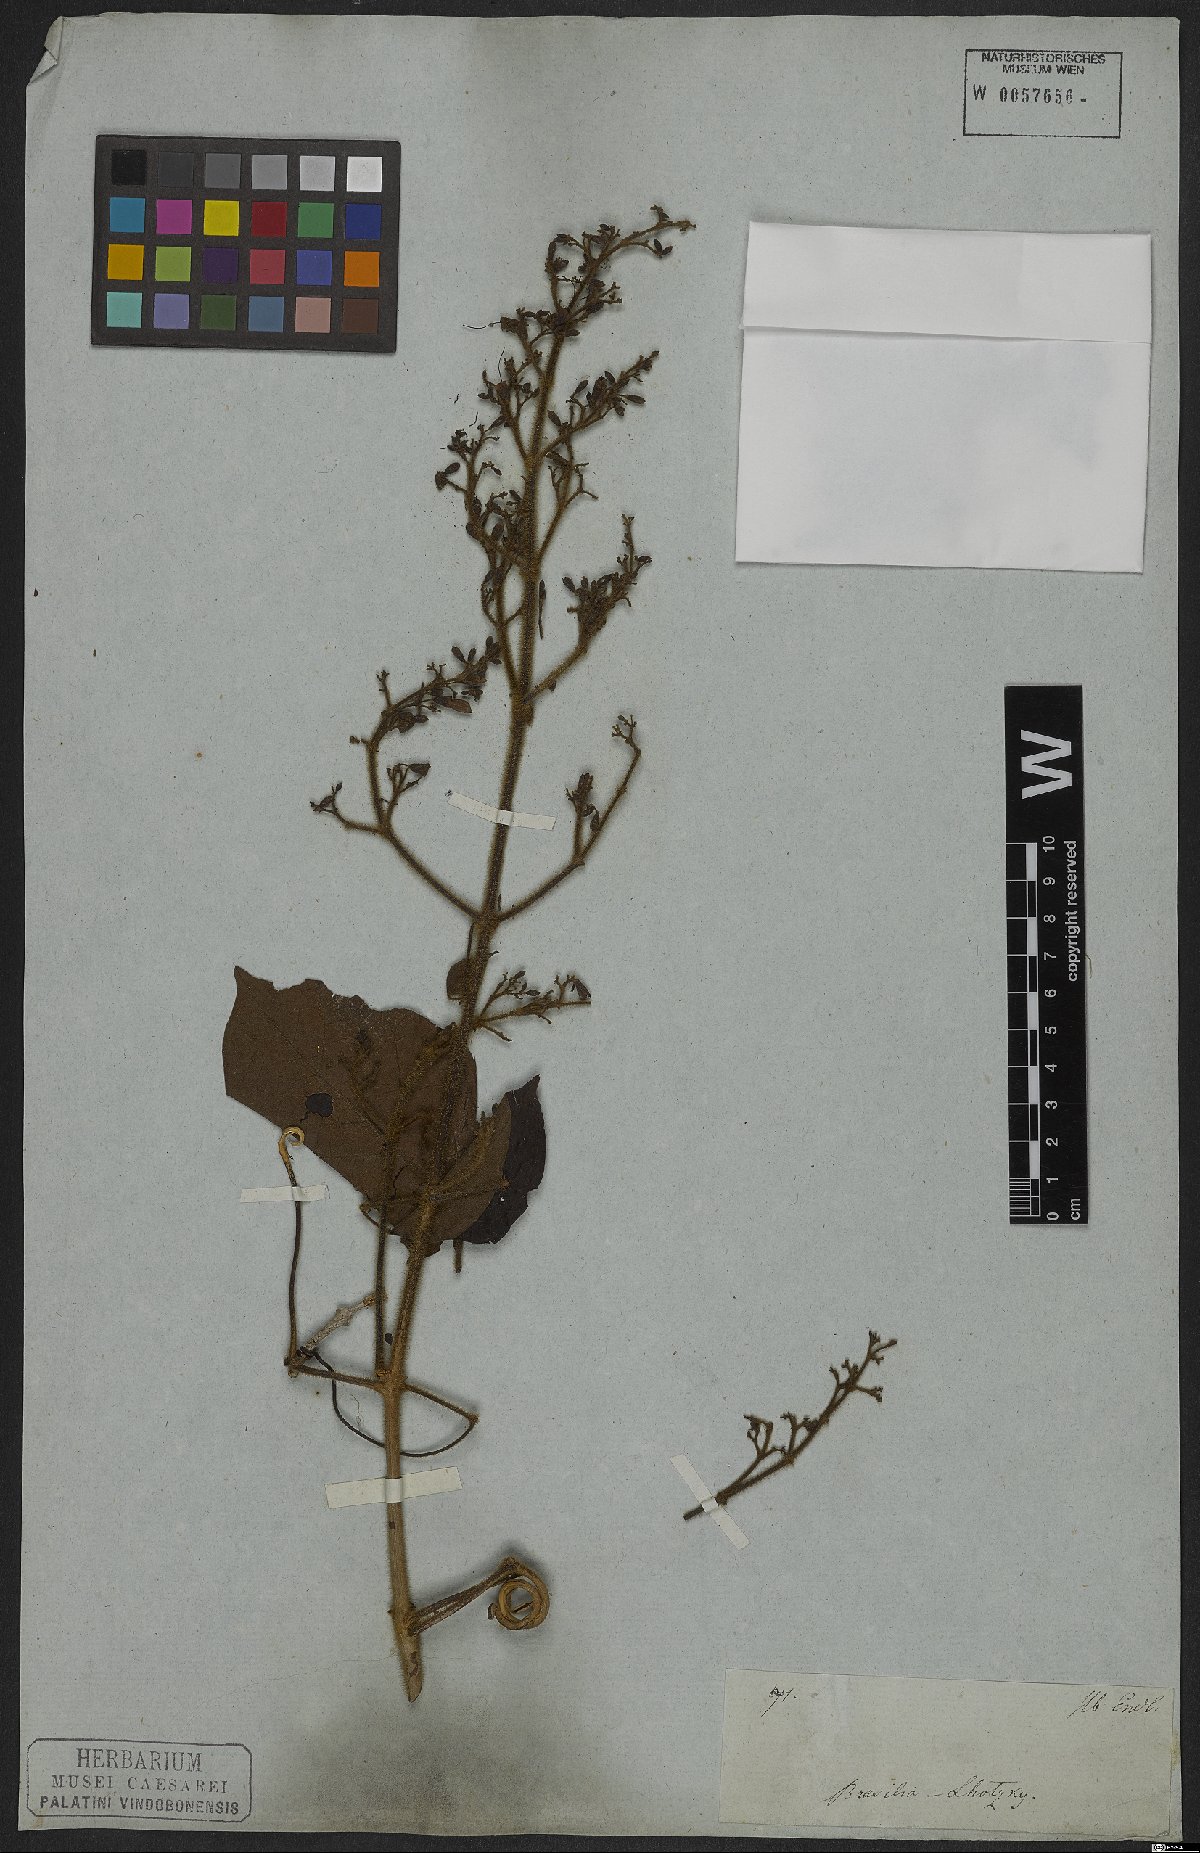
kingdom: Plantae
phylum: Tracheophyta
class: Magnoliopsida
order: Lamiales
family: Bignoniaceae
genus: Fridericia
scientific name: Fridericia arthrerion
